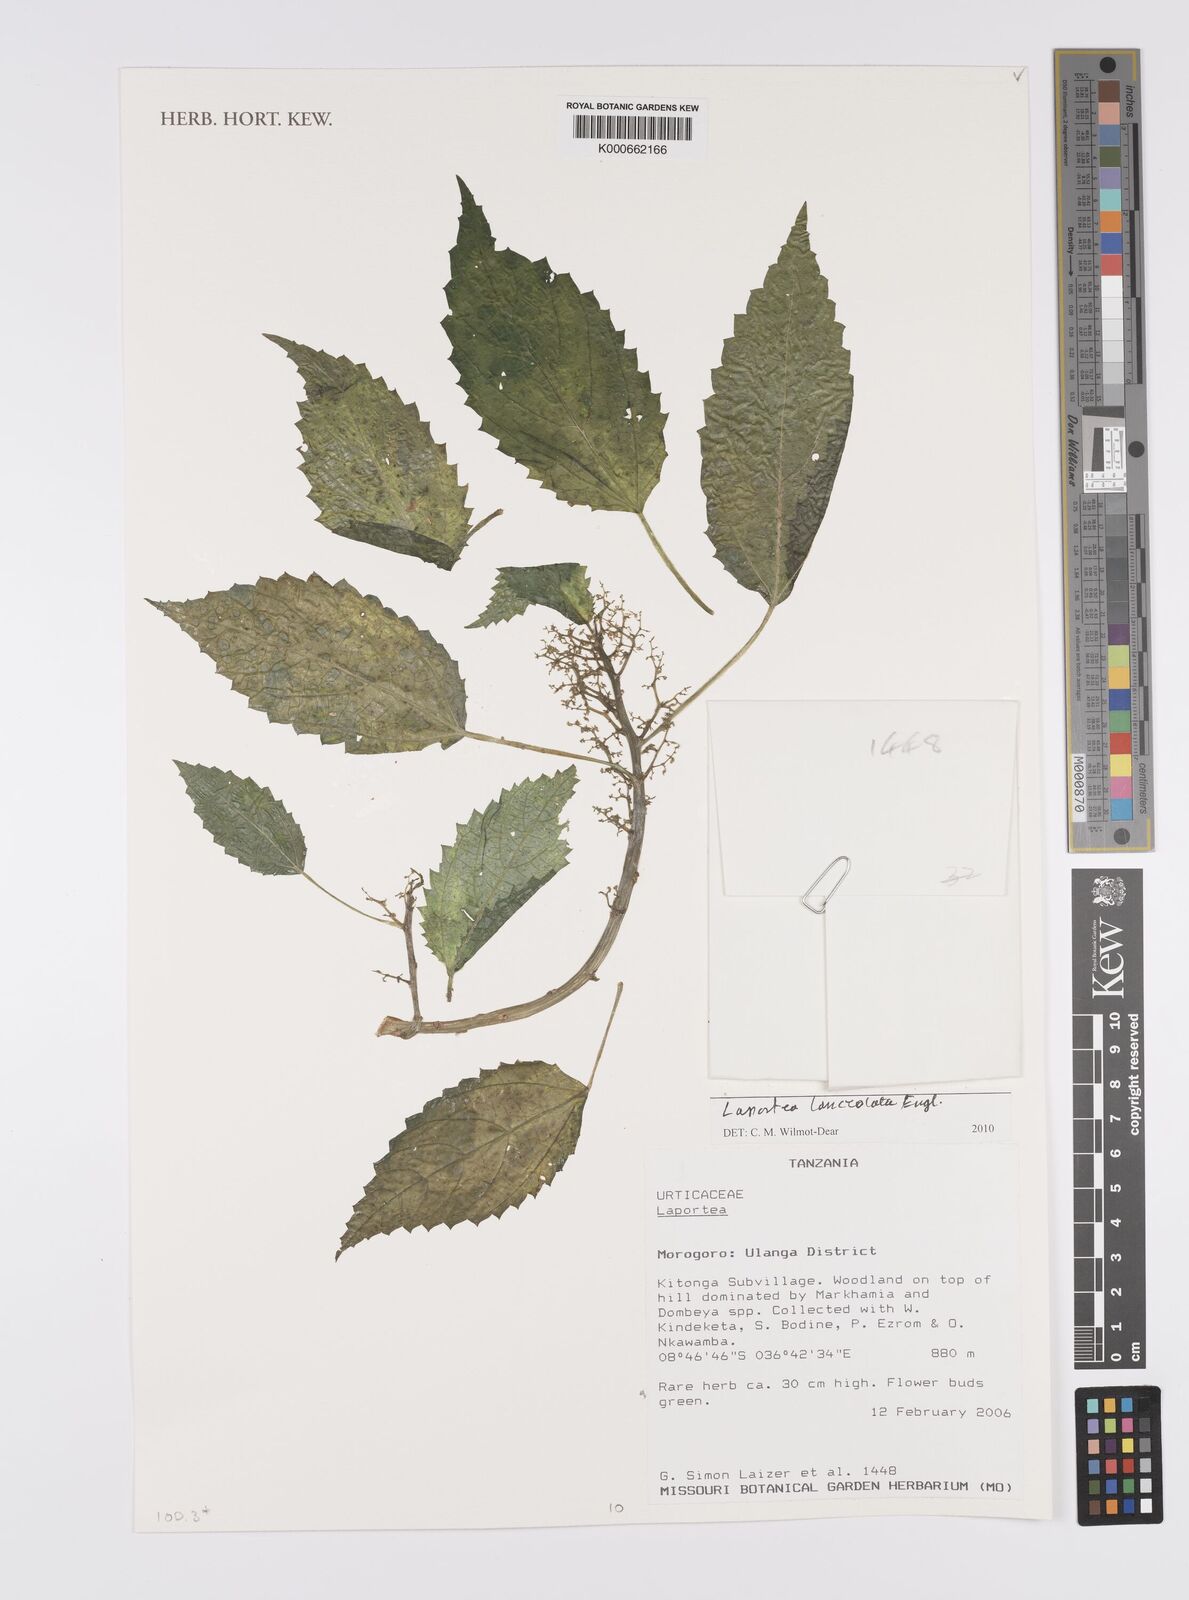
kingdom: Plantae
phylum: Tracheophyta
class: Magnoliopsida
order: Rosales
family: Urticaceae
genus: Laportea
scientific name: Laportea
